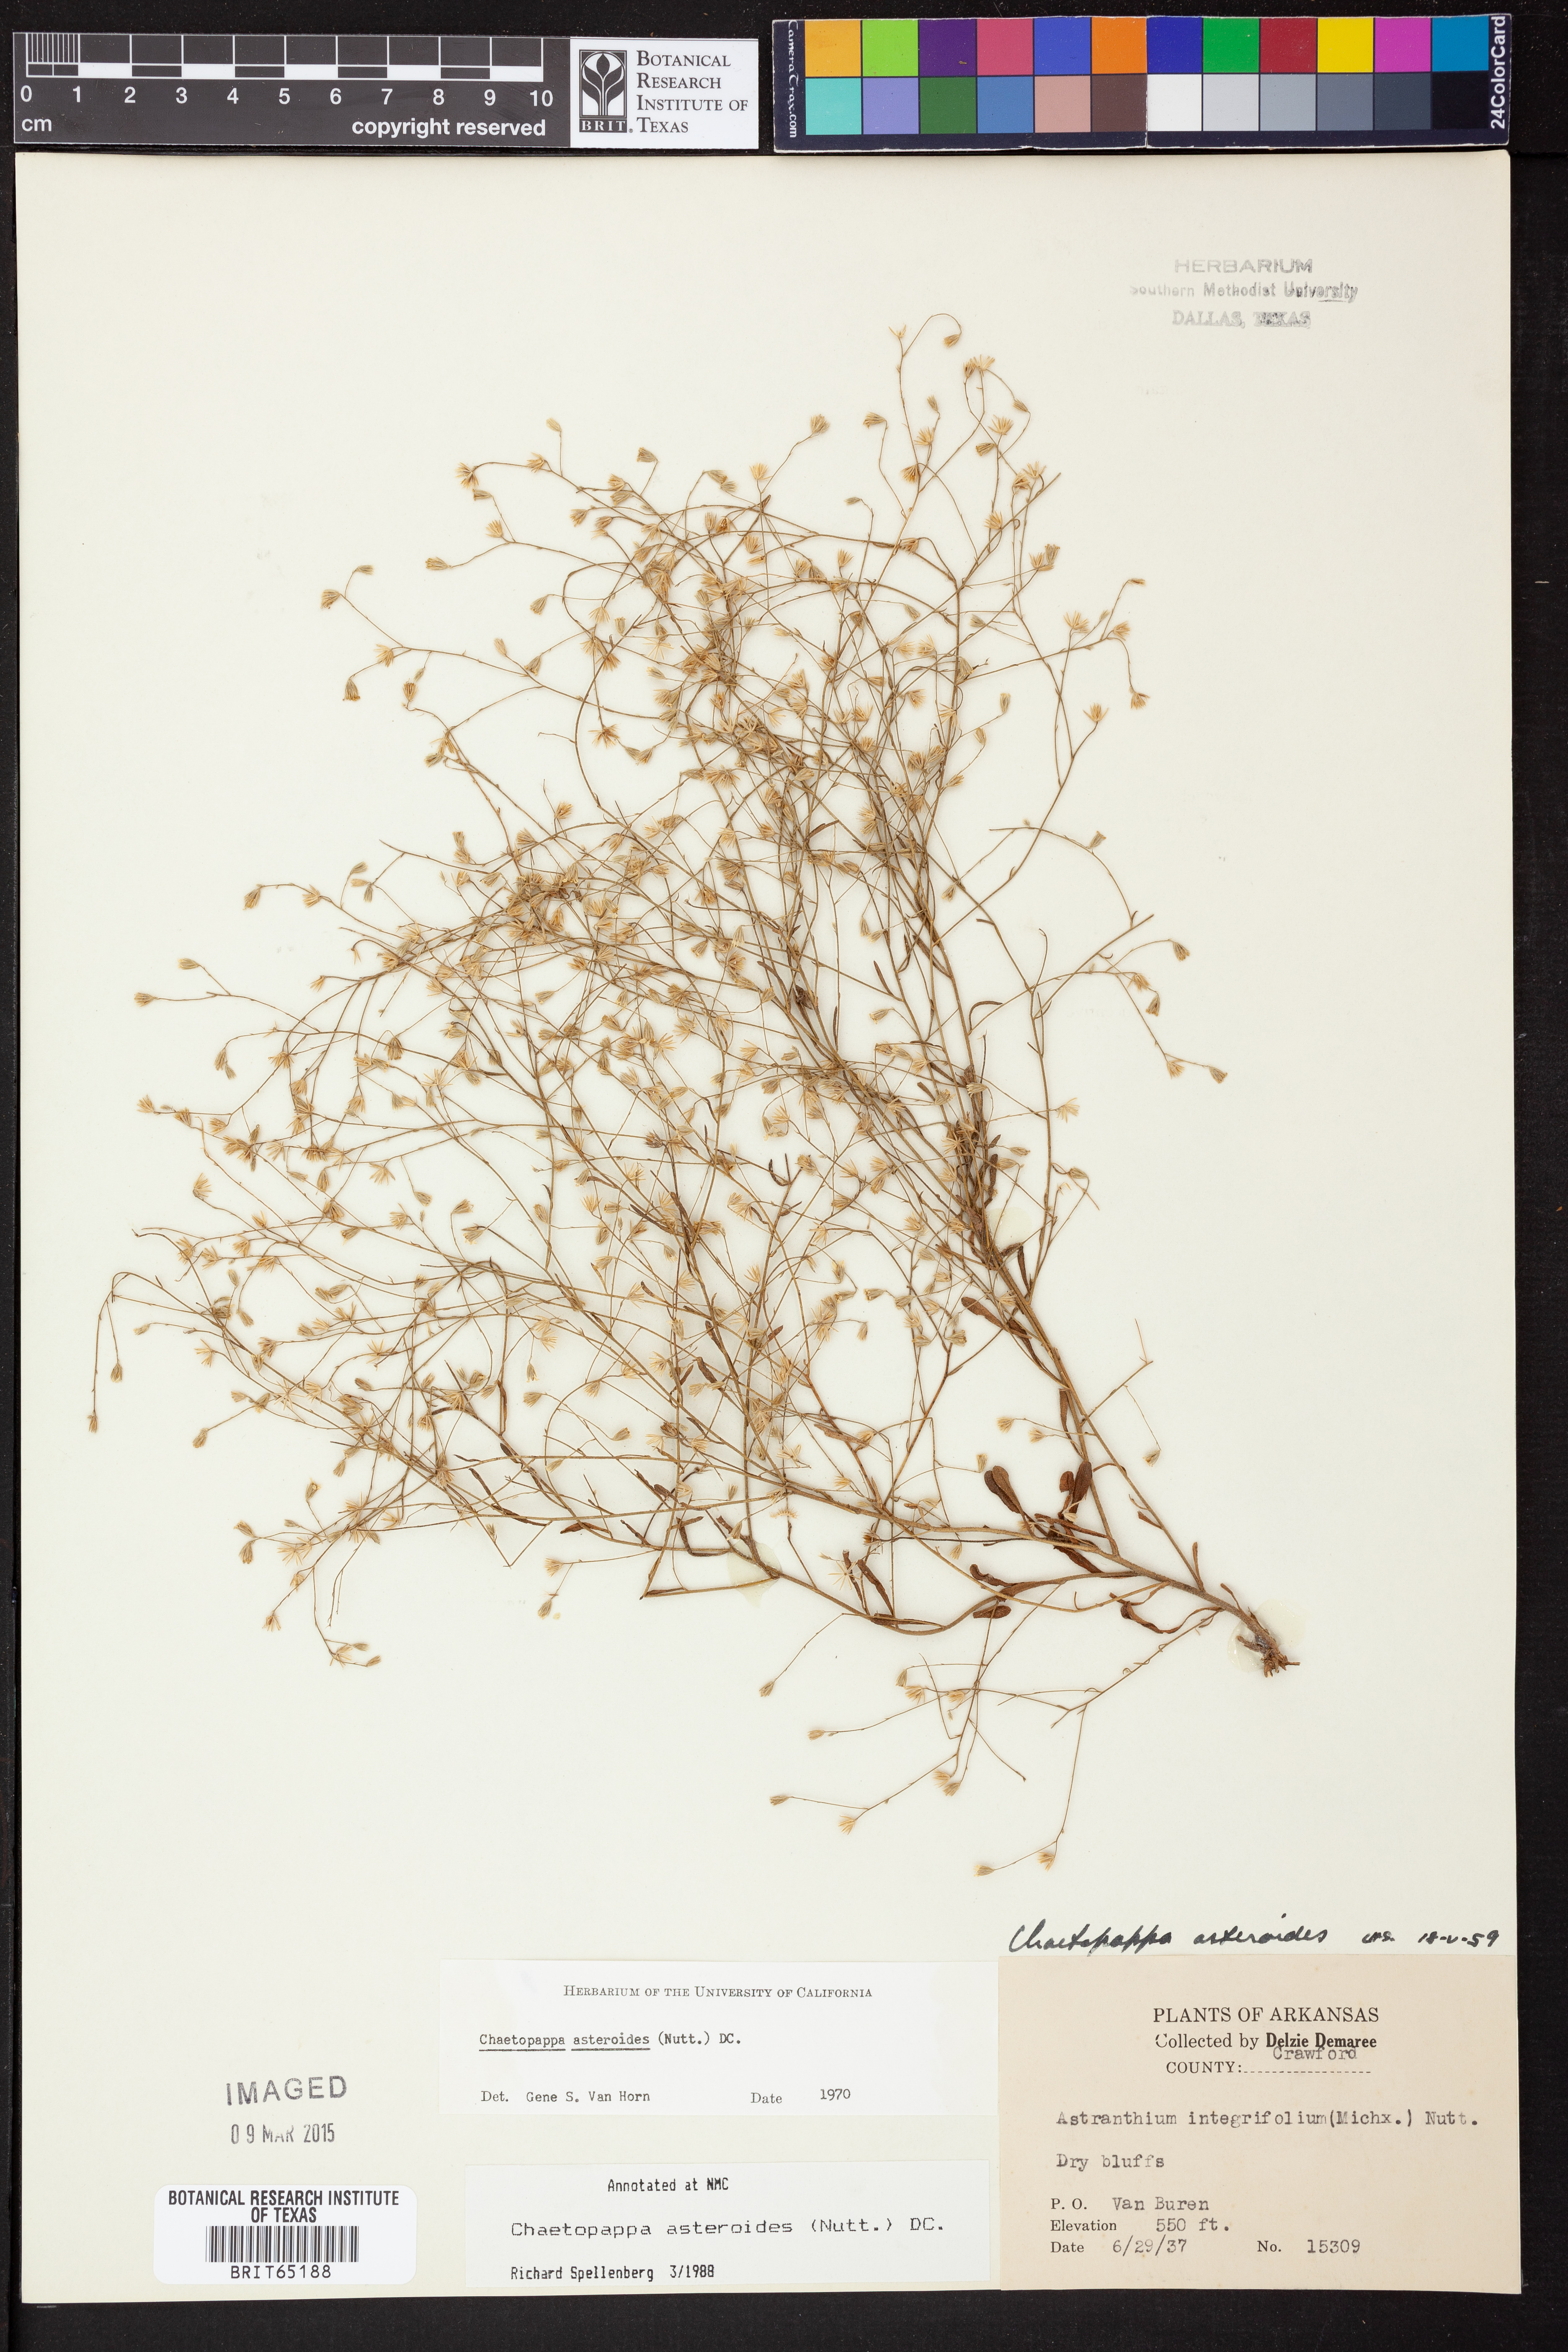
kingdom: Plantae
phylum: Tracheophyta
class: Magnoliopsida
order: Asterales
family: Asteraceae
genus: Chaetopappa
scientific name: Chaetopappa asteroides
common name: Tiny lazy daisy
